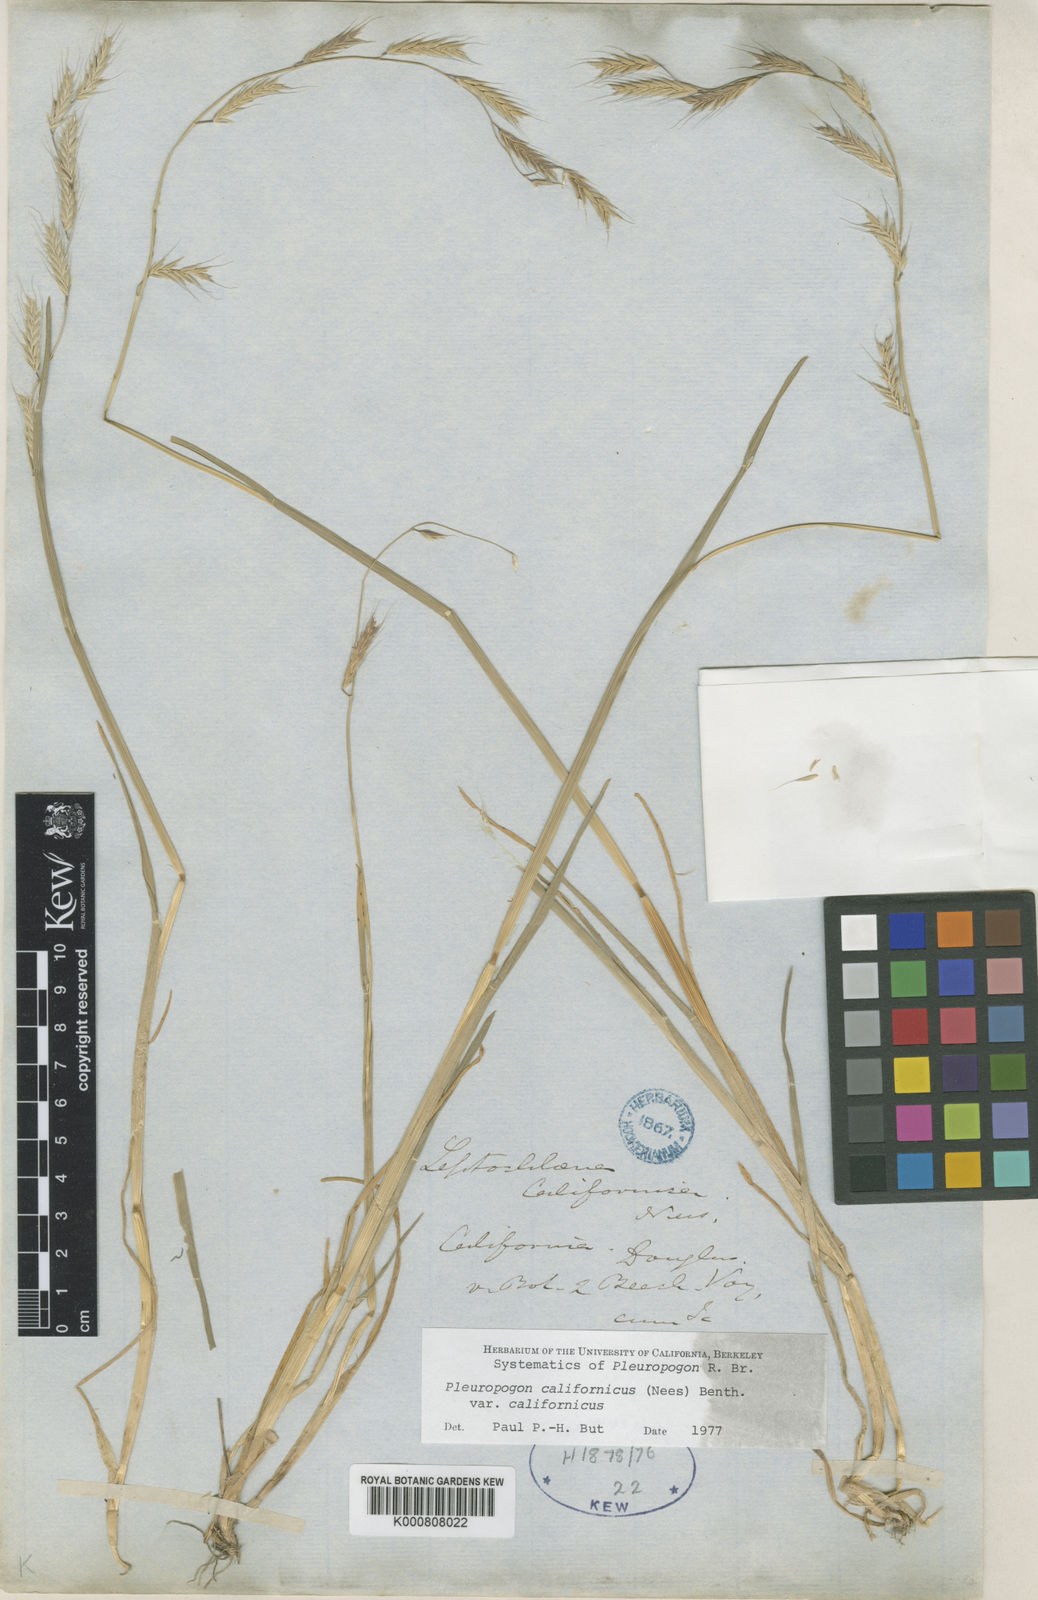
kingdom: Plantae
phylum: Tracheophyta
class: Liliopsida
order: Poales
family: Poaceae
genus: Pleuropogon
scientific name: Pleuropogon davyi
